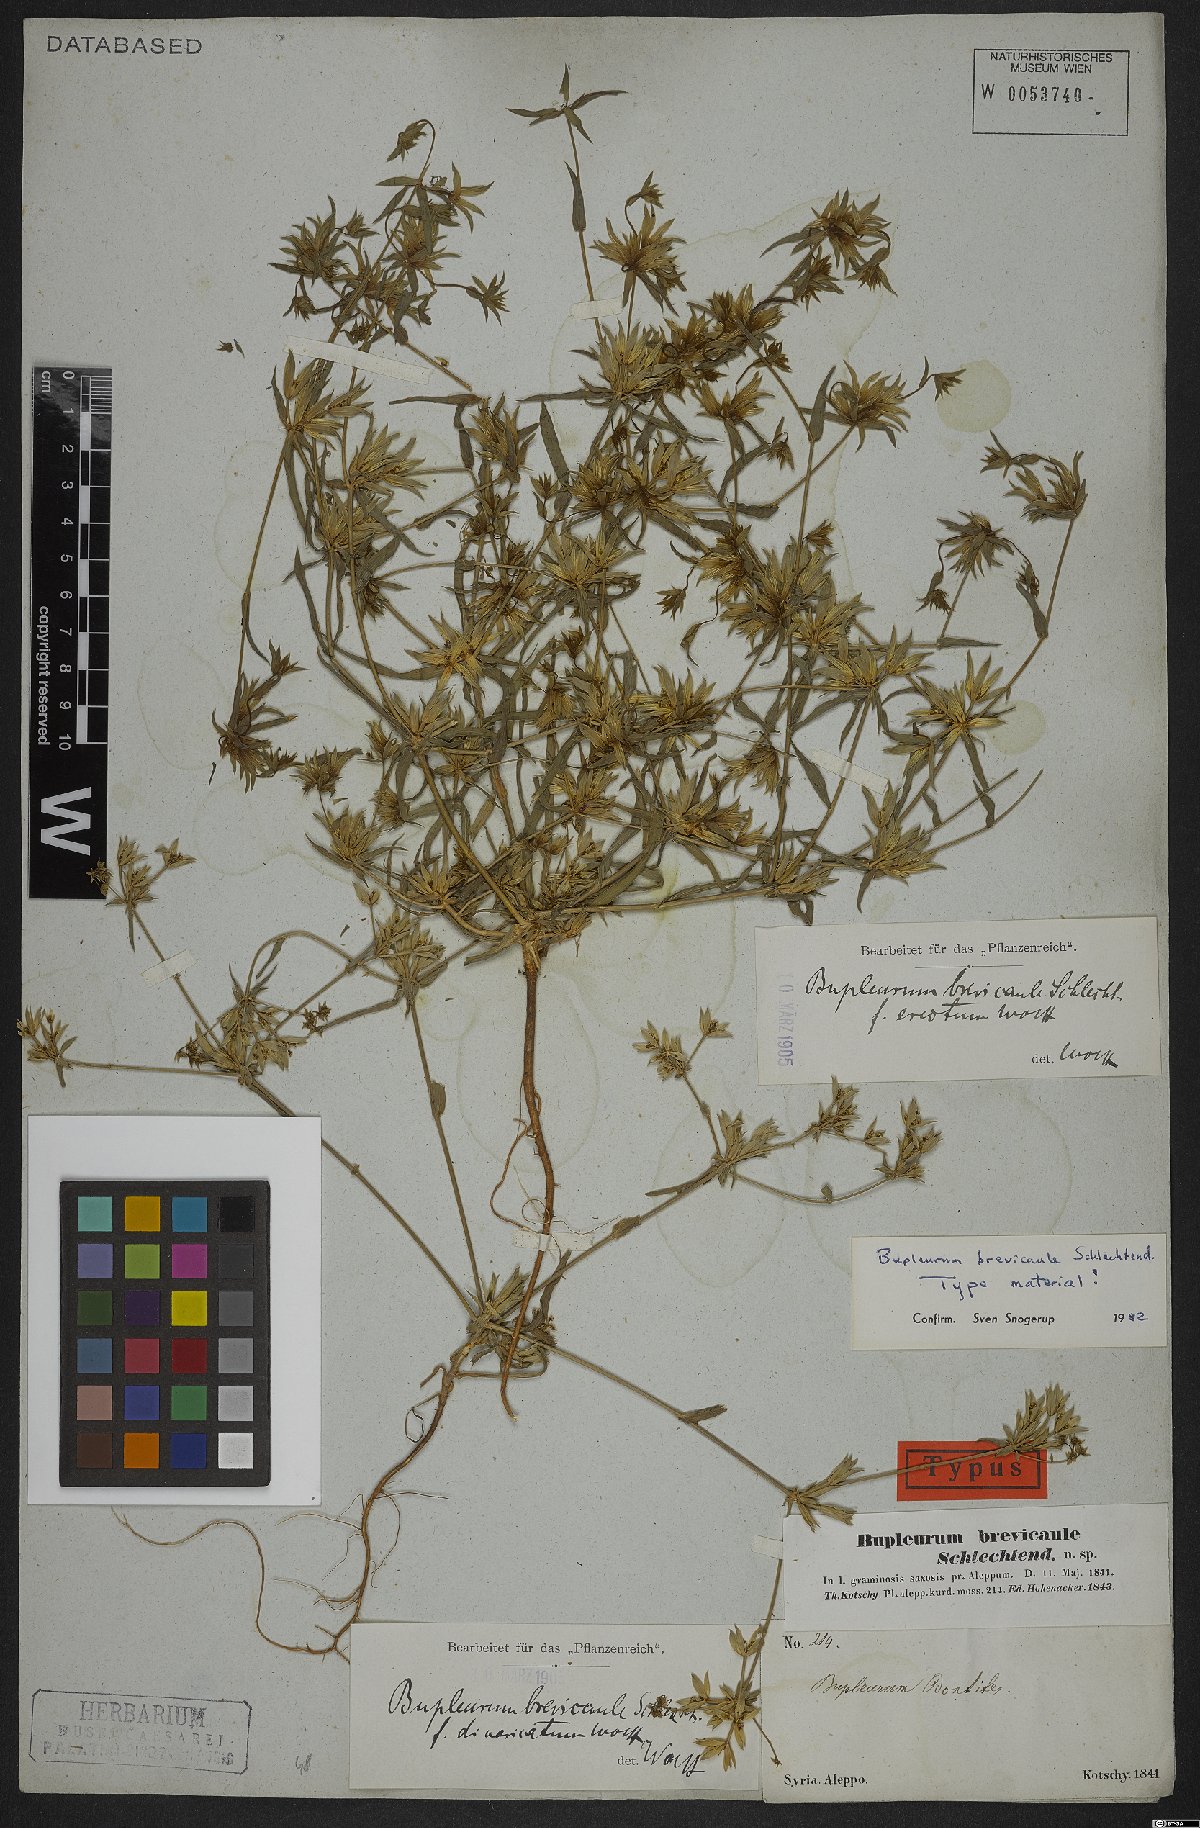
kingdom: Plantae
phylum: Tracheophyta
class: Magnoliopsida
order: Apiales
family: Apiaceae
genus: Bupleurum
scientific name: Bupleurum brevicaule
